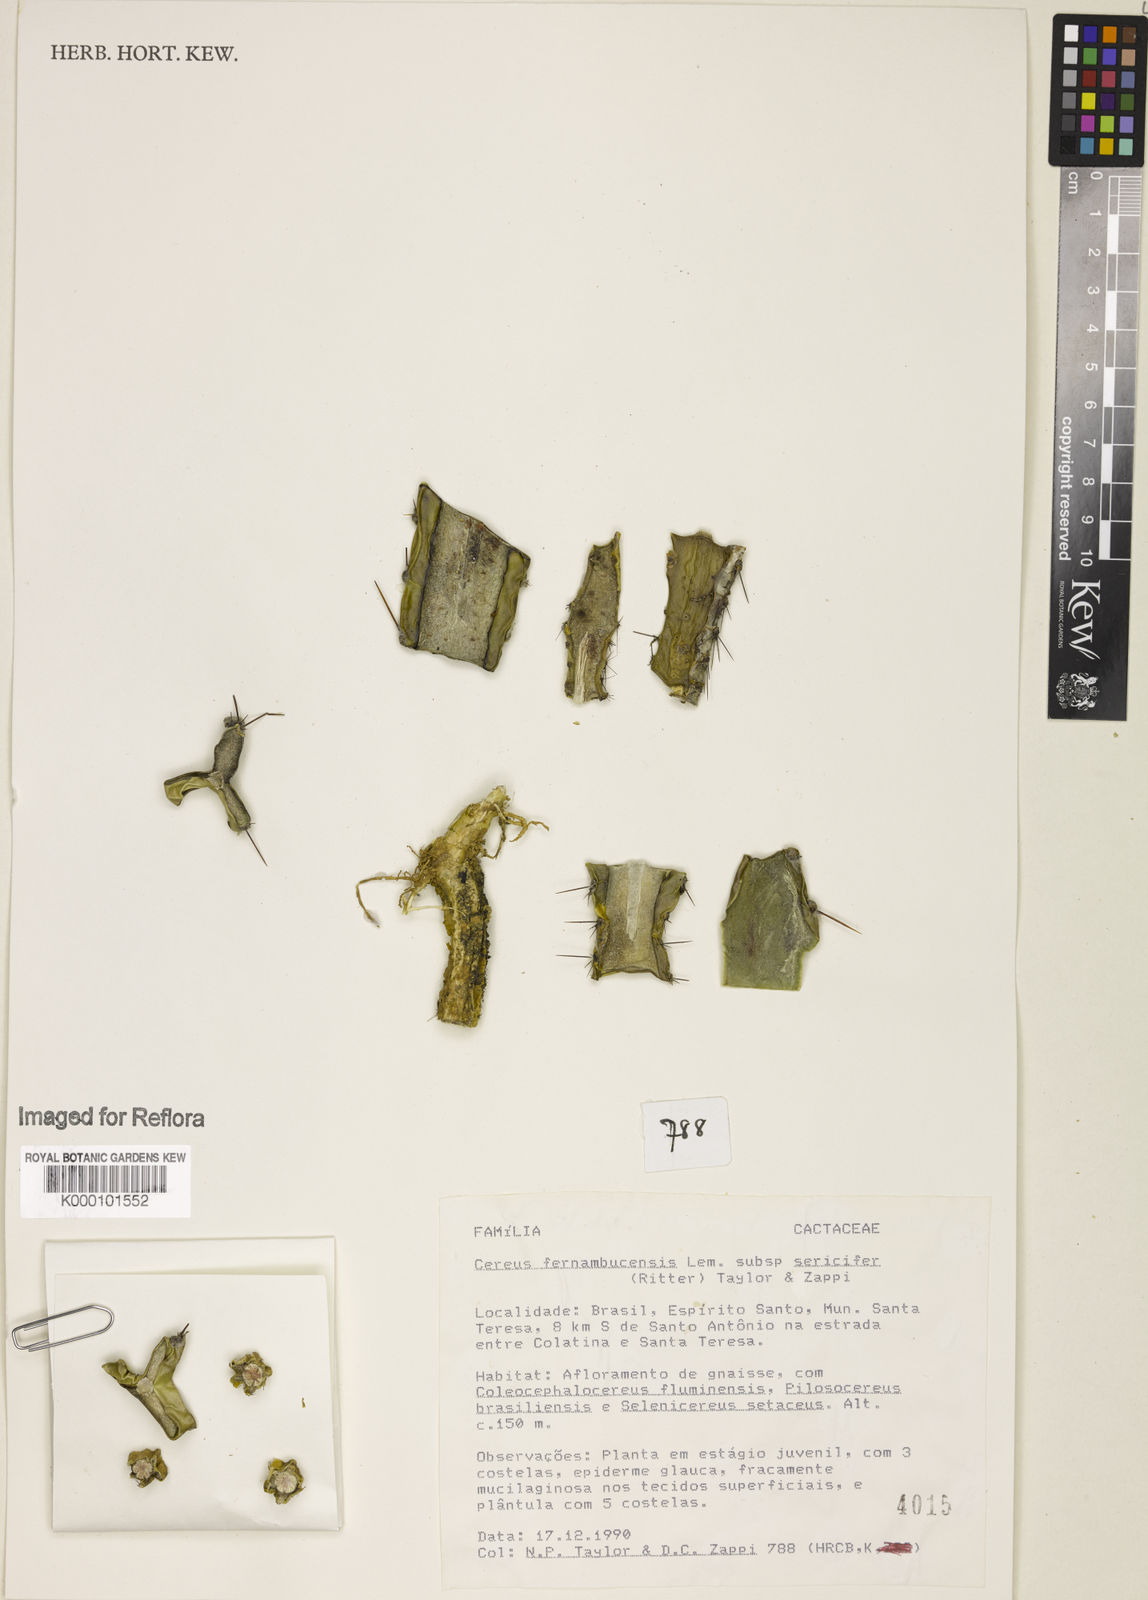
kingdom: Plantae
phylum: Tracheophyta
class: Magnoliopsida
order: Caryophyllales
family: Cactaceae
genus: Cereus
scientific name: Cereus fernambucensis
